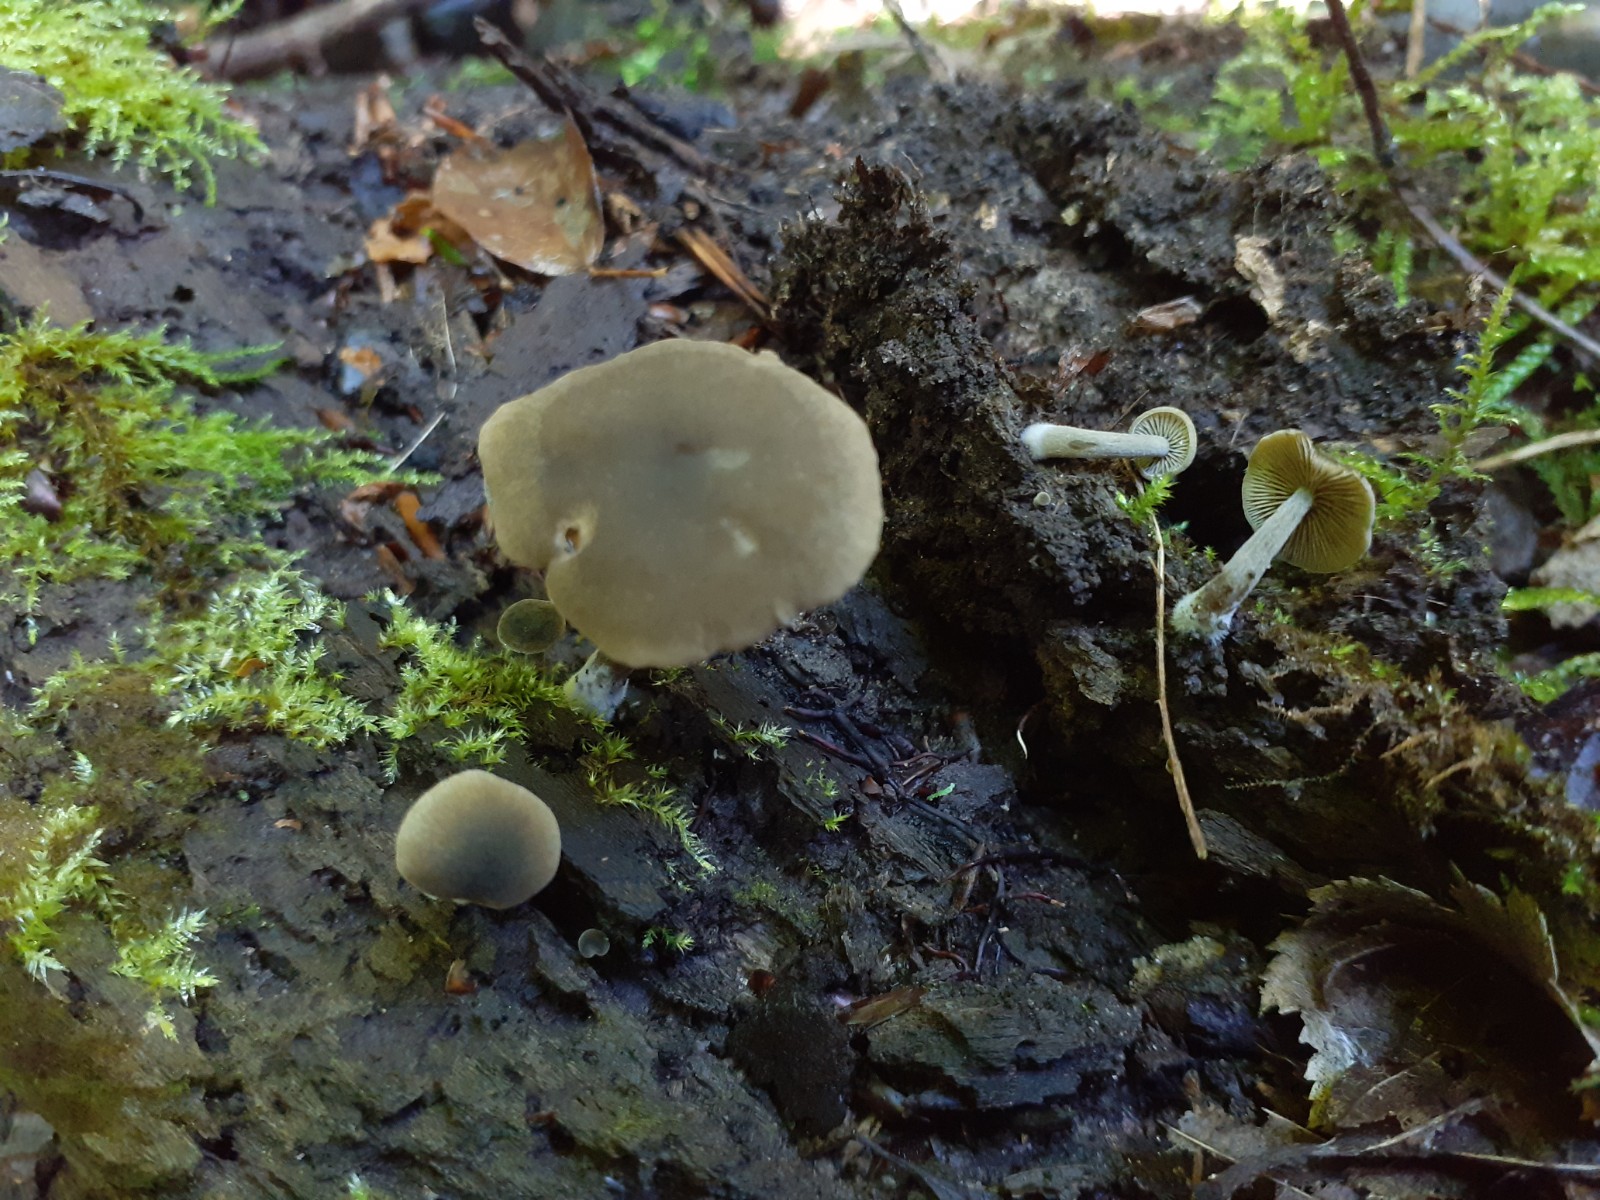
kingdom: Fungi
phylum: Basidiomycota
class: Agaricomycetes
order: Agaricales
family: Crepidotaceae
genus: Simocybe
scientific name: Simocybe sumptuosa
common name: stor skyggehat
